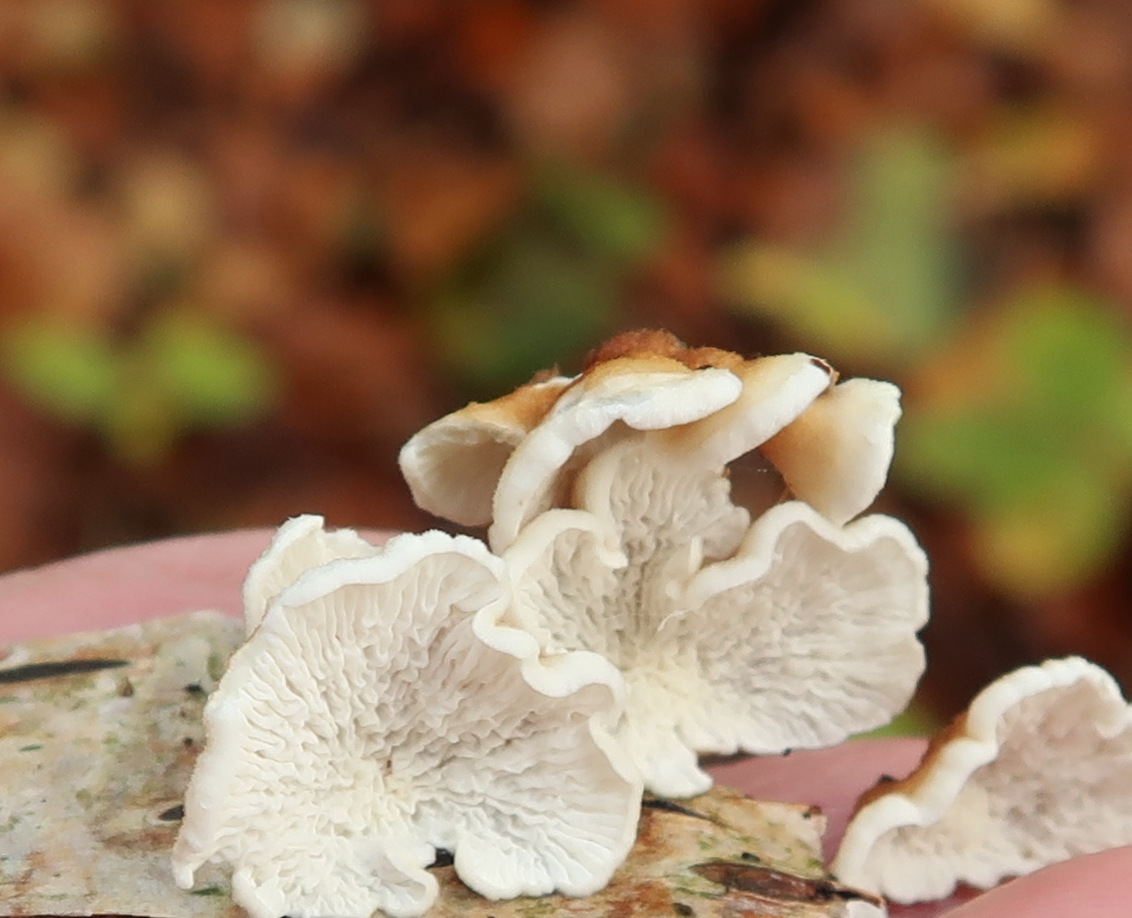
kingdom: Fungi
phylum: Basidiomycota
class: Agaricomycetes
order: Amylocorticiales
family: Amylocorticiaceae
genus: Plicaturopsis
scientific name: Plicaturopsis crispa
